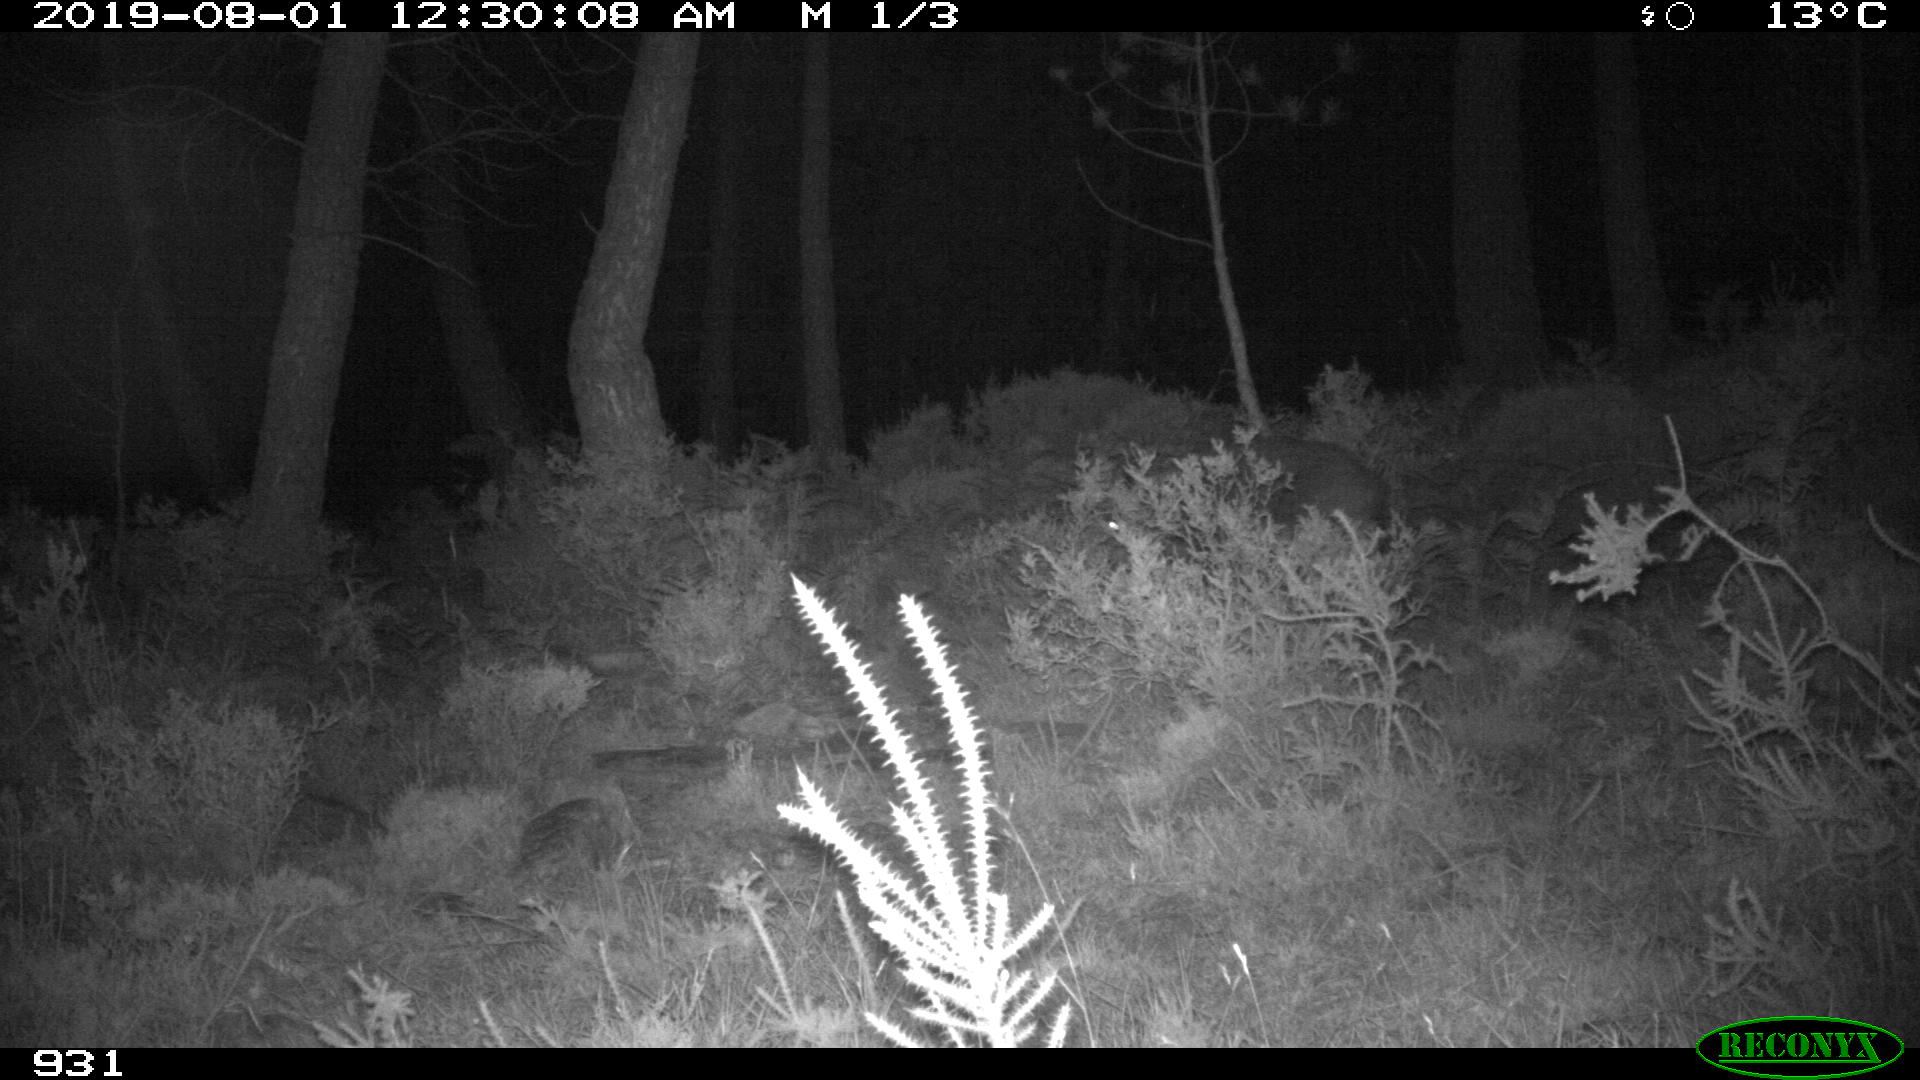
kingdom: Animalia
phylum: Chordata
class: Mammalia
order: Artiodactyla
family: Suidae
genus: Sus
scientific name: Sus scrofa
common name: Wild boar
